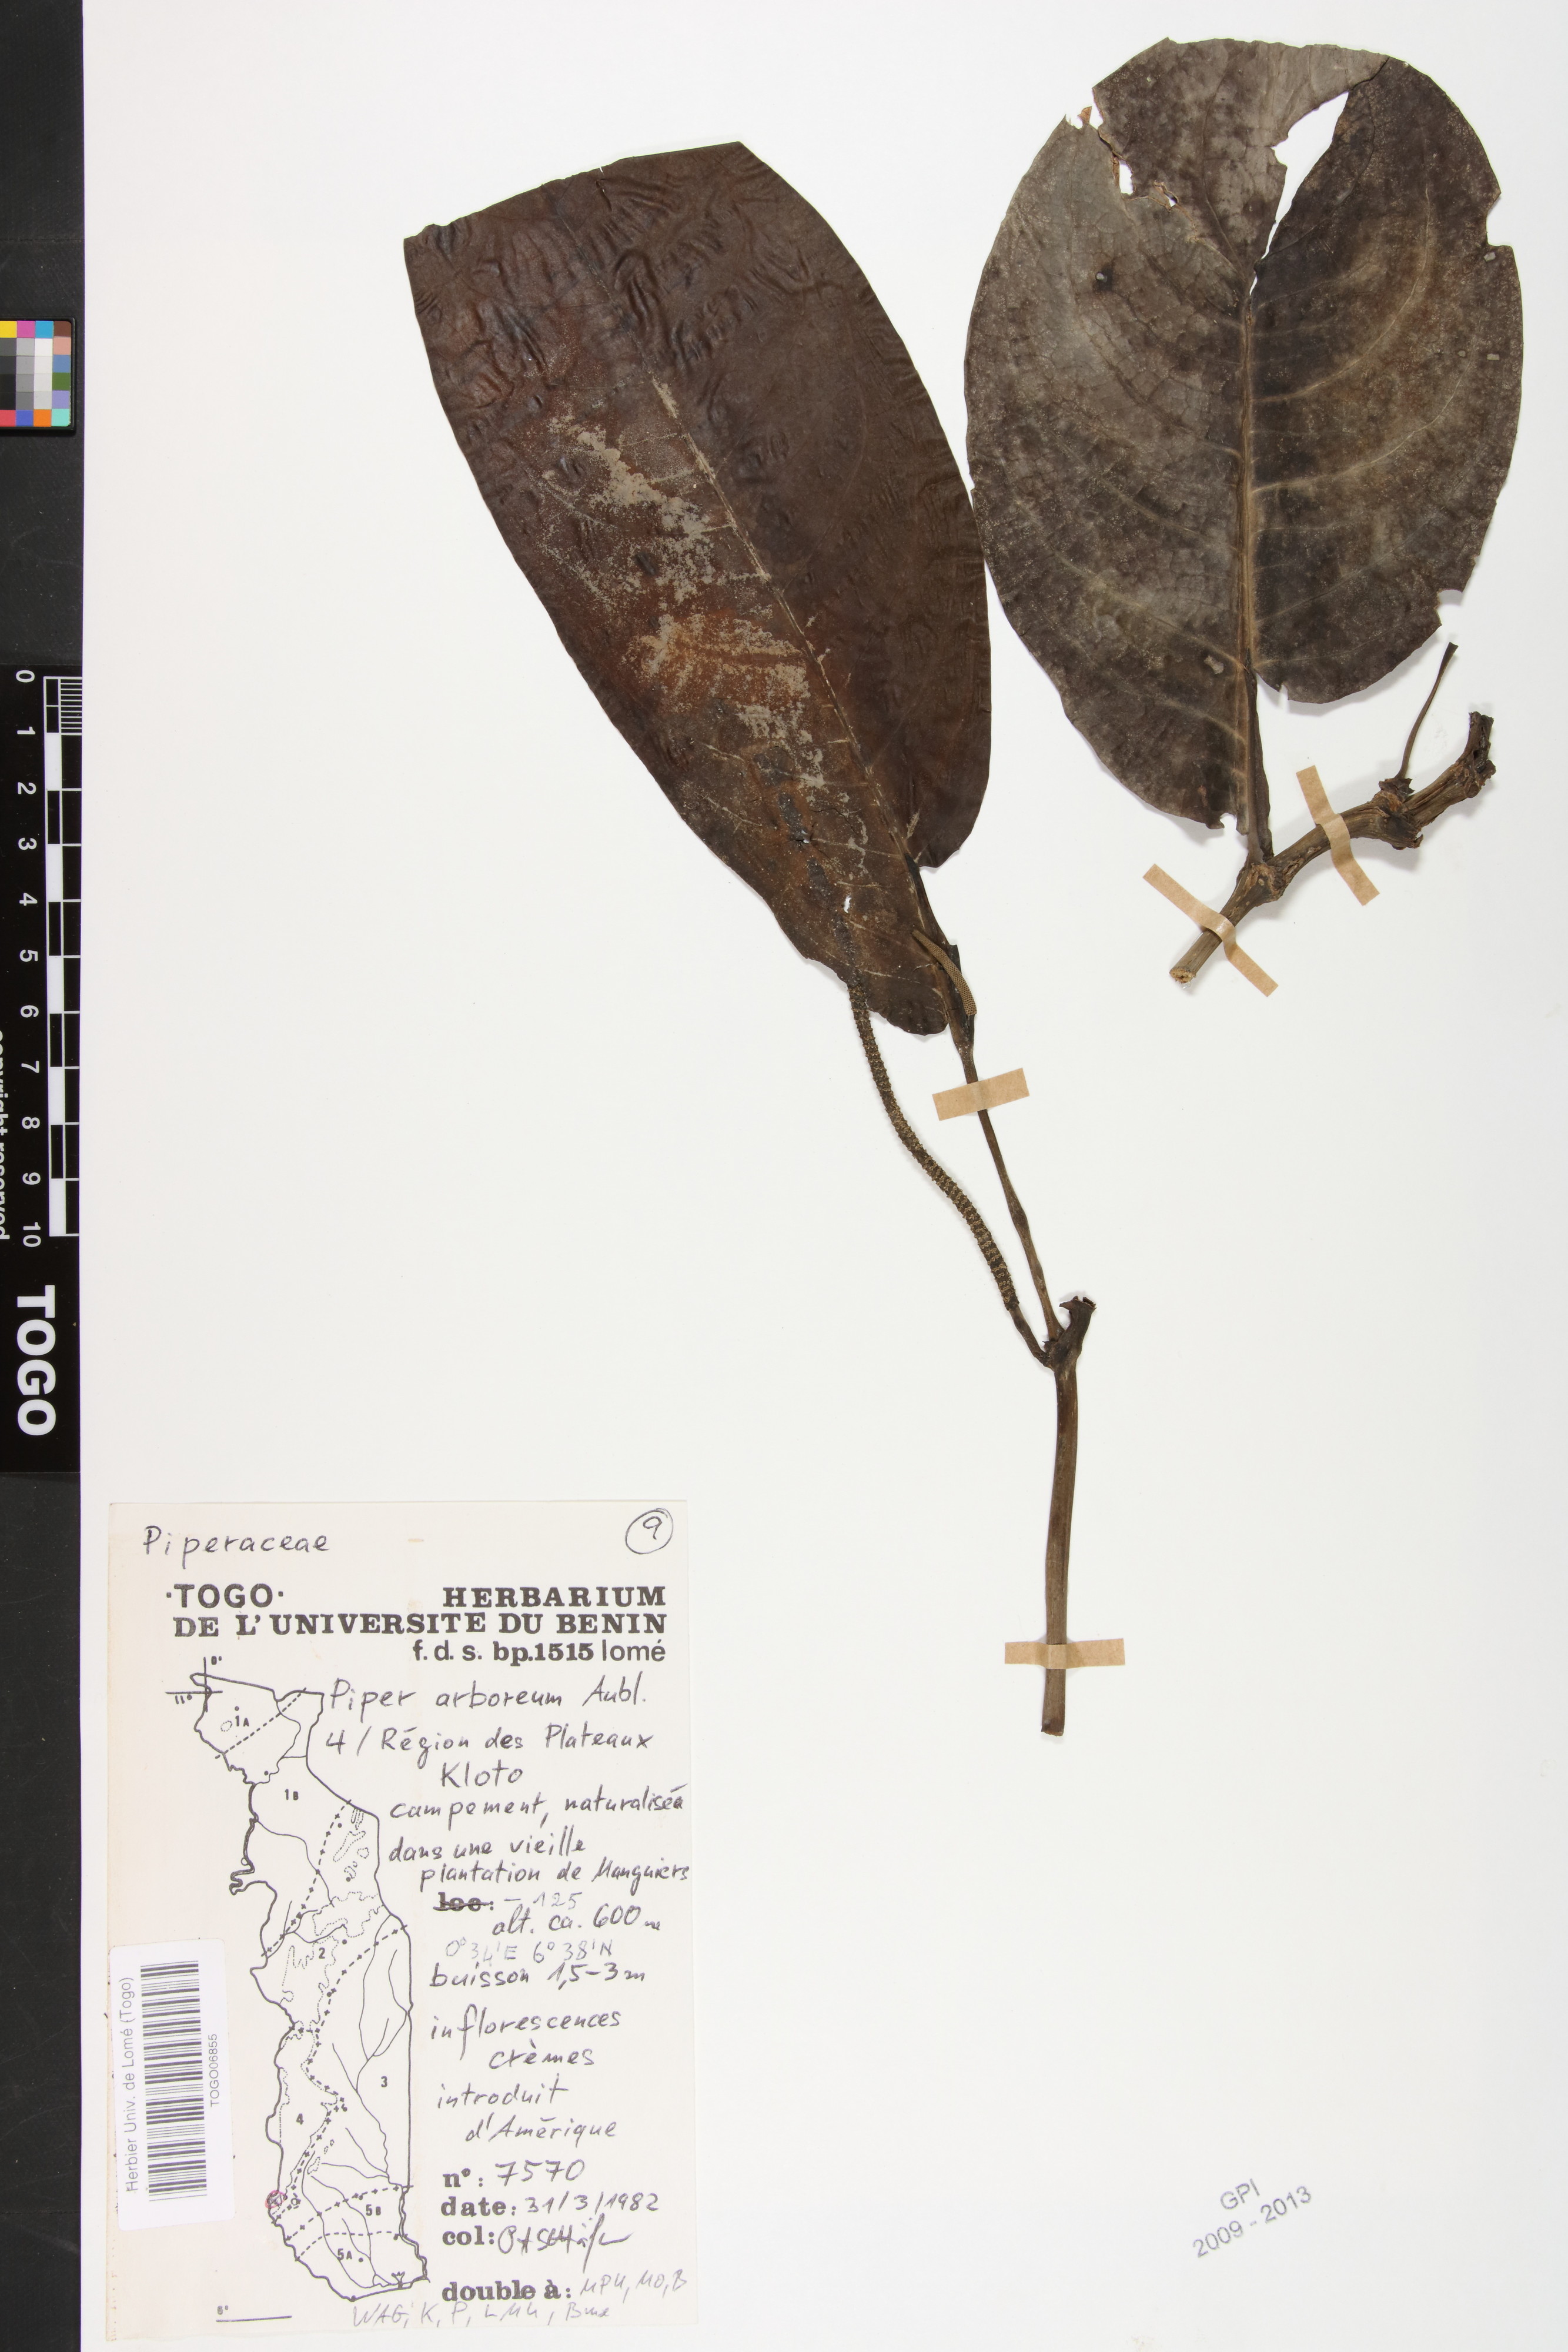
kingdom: Plantae
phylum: Tracheophyta
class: Magnoliopsida
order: Piperales
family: Piperaceae
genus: Piper
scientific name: Piper arboreum
